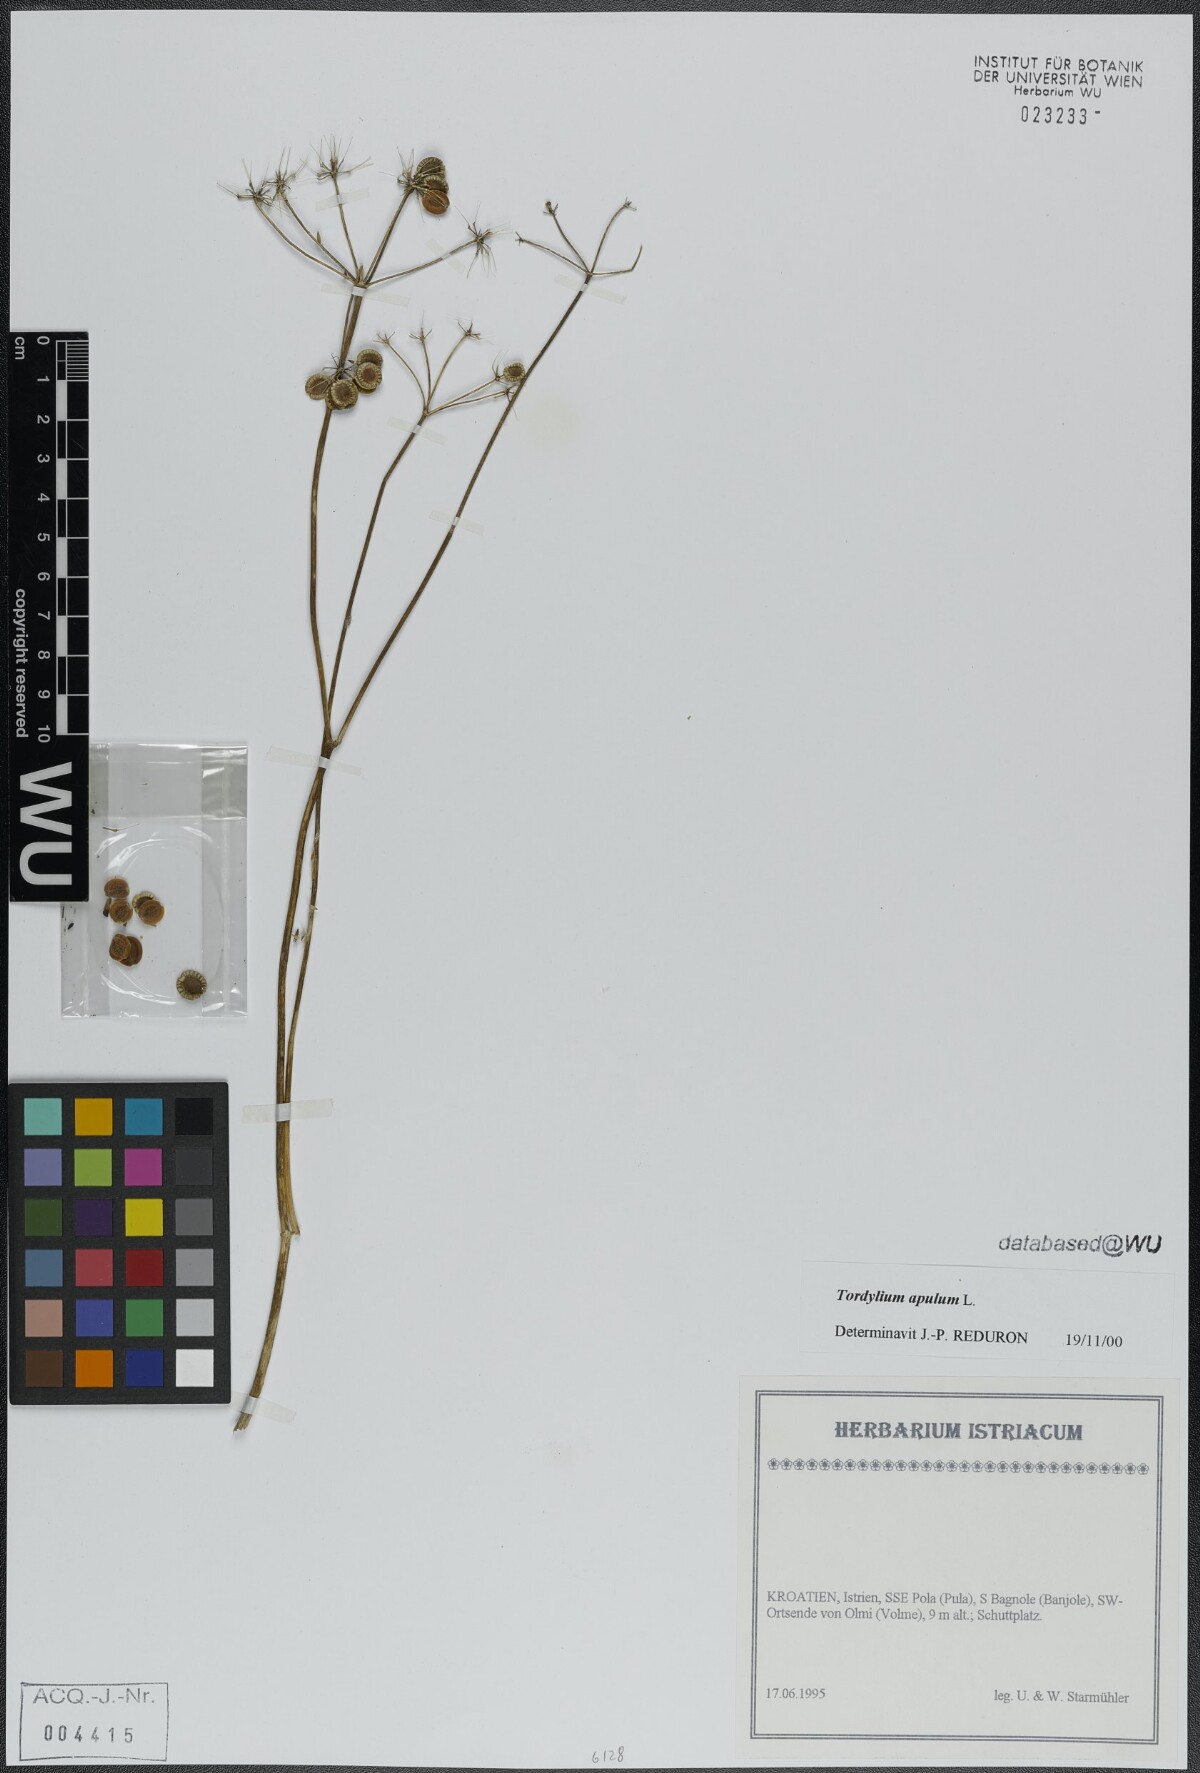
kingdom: Plantae
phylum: Tracheophyta
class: Magnoliopsida
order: Apiales
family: Apiaceae
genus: Tordylium
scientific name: Tordylium apulum
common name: Mediterranean hartwort
